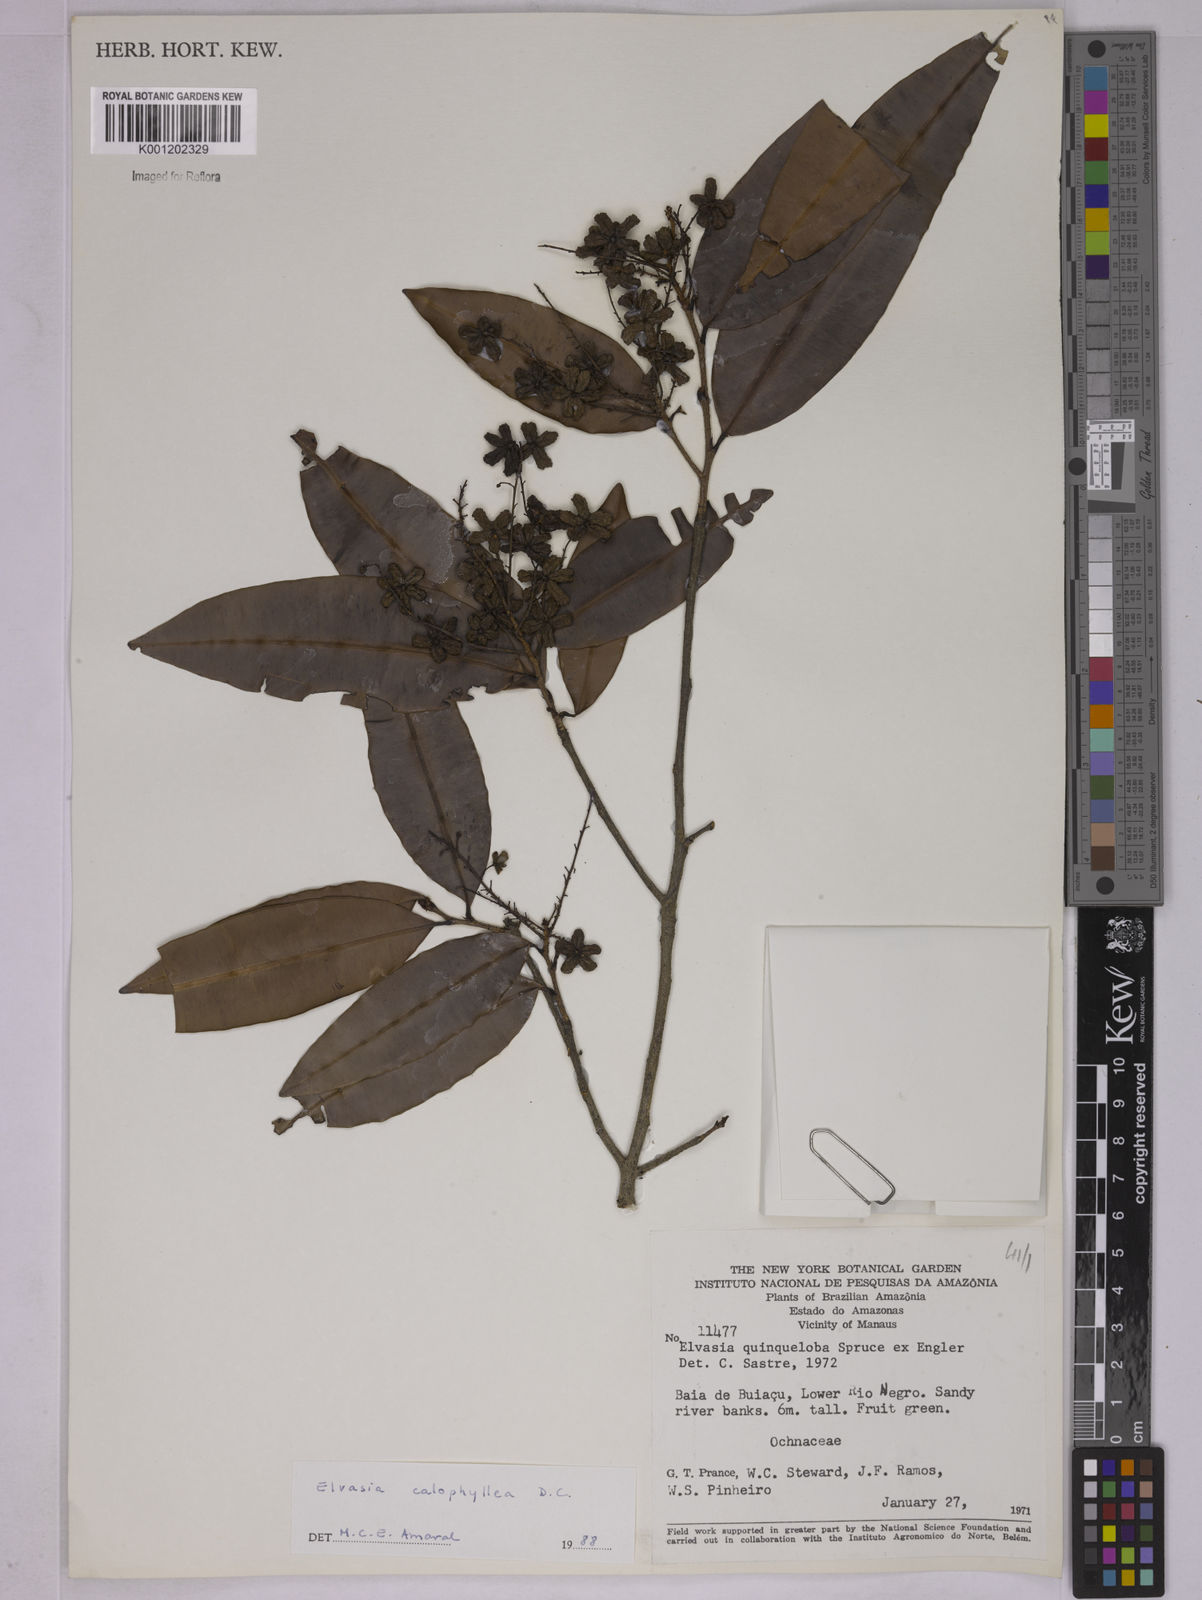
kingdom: Plantae
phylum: Tracheophyta
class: Magnoliopsida
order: Malpighiales
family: Ochnaceae
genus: Elvasia
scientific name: Elvasia calophyllea
